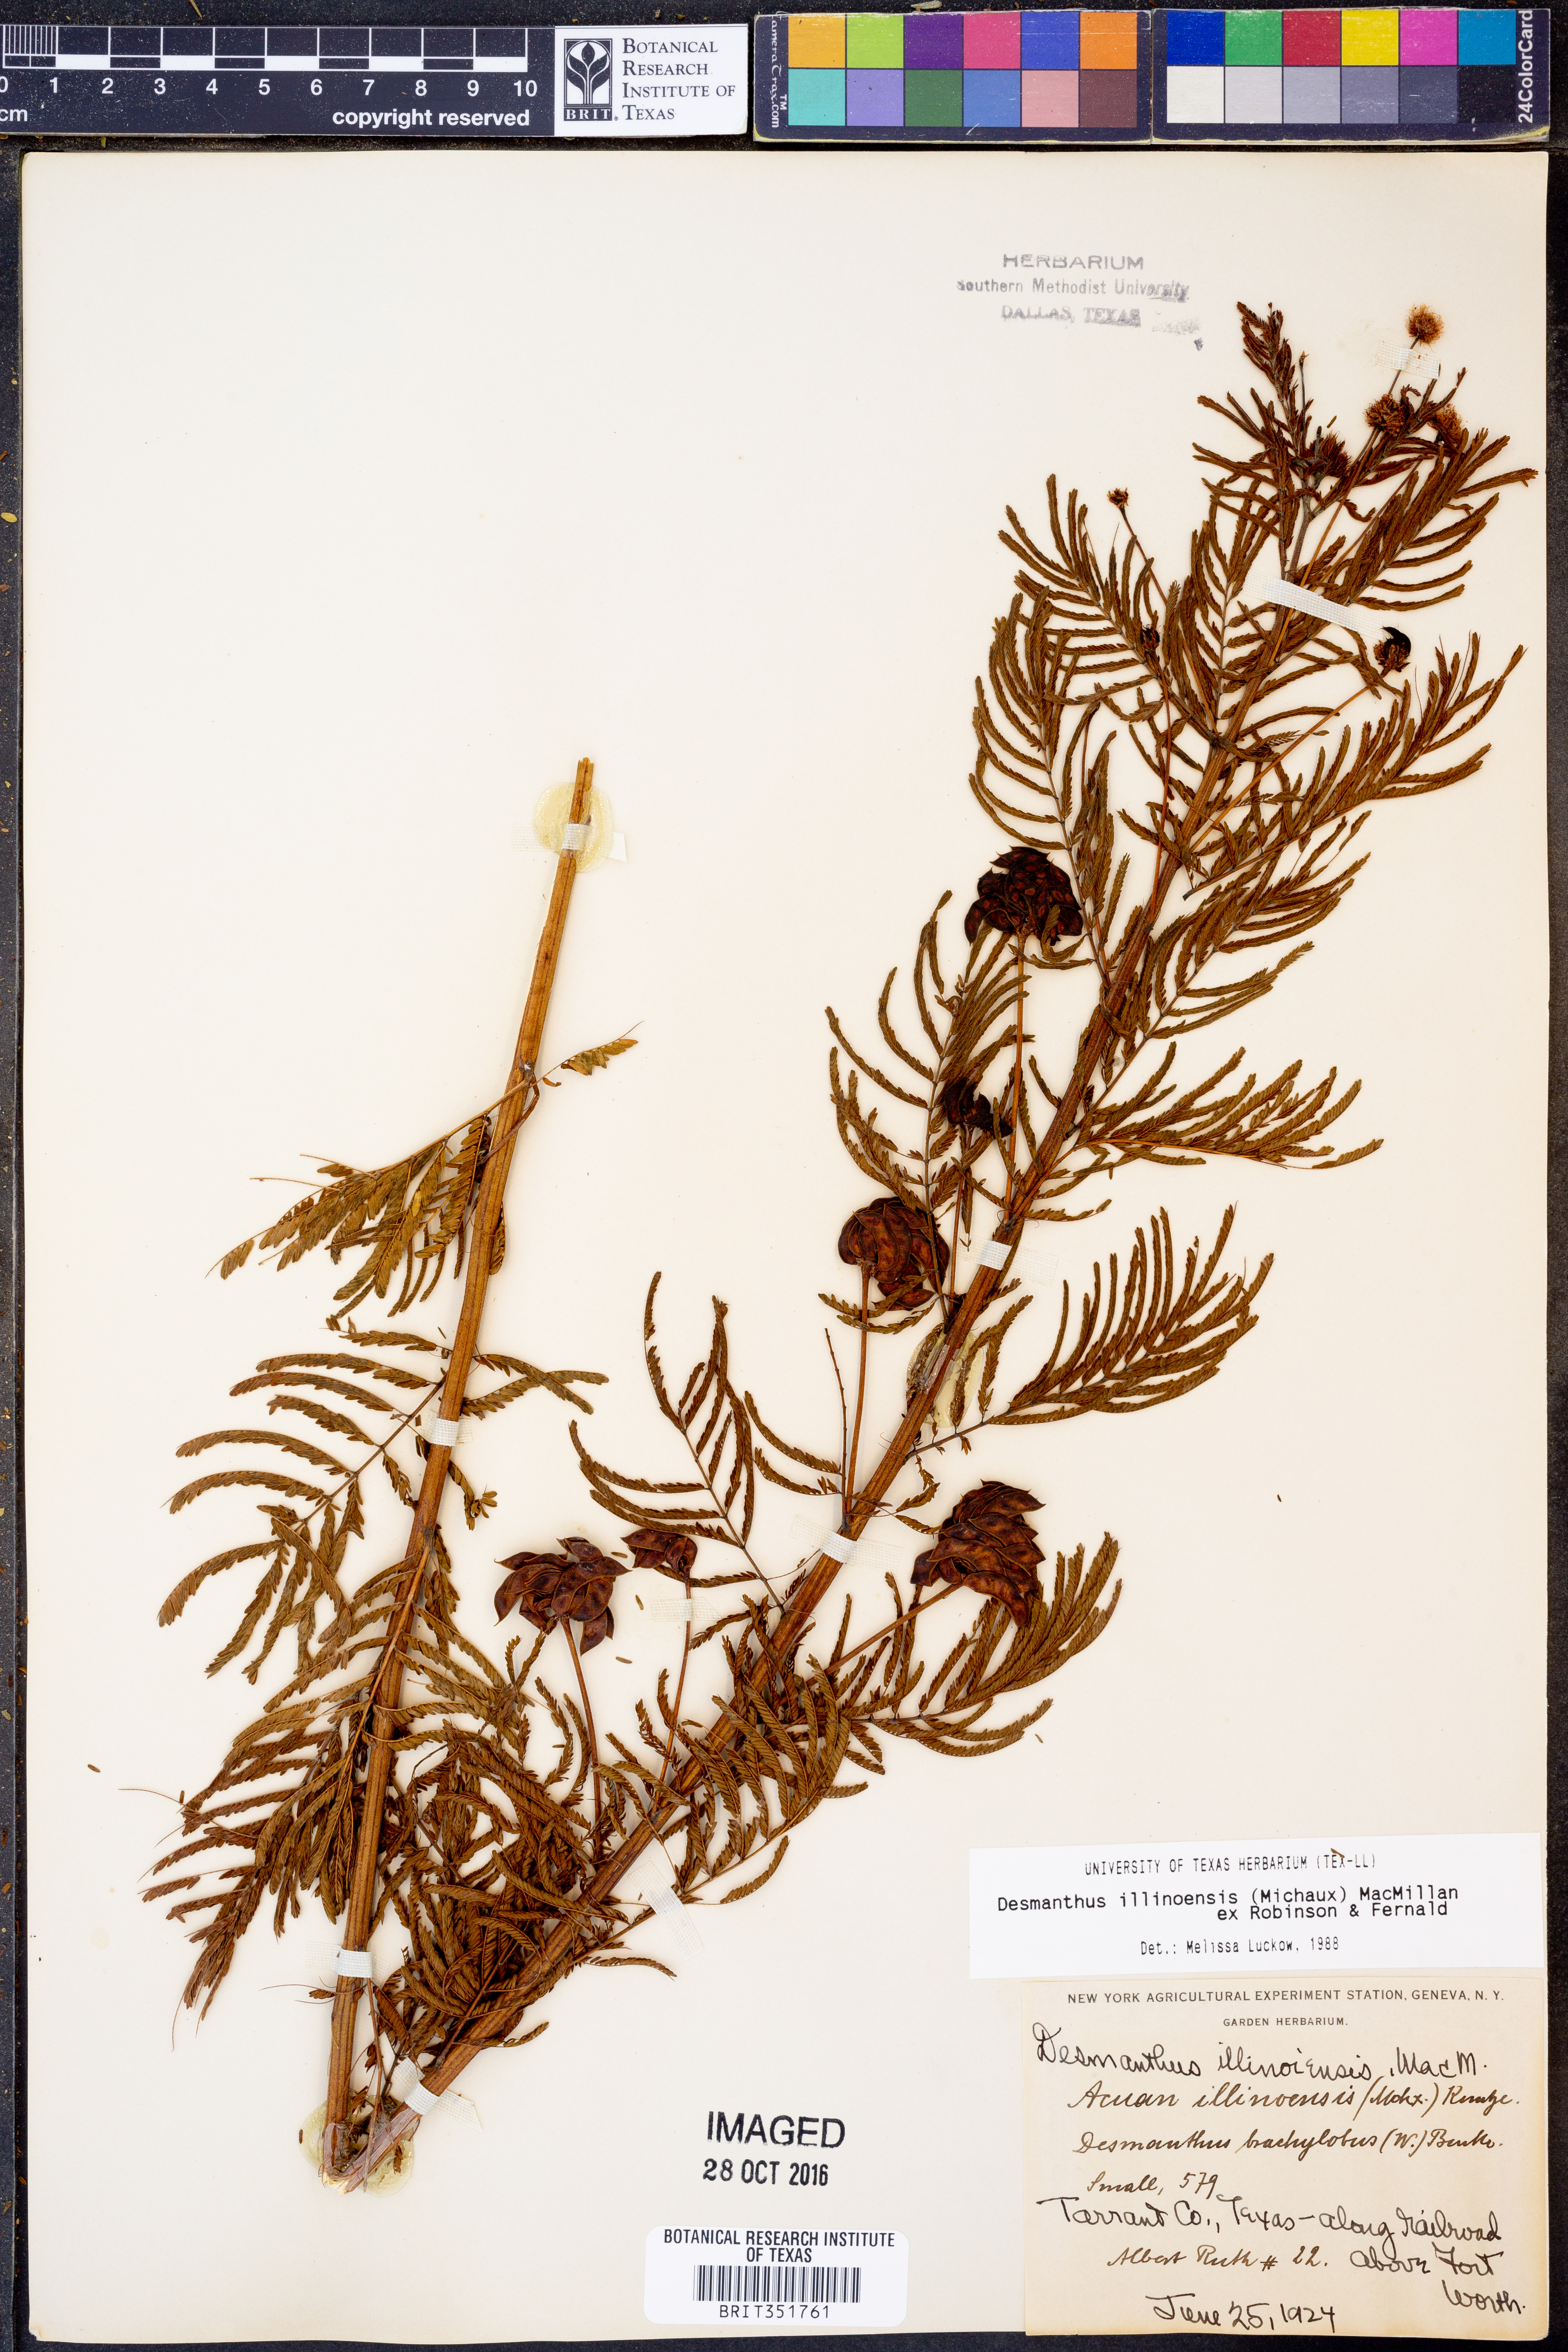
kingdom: Plantae
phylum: Tracheophyta
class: Magnoliopsida
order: Fabales
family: Fabaceae
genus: Desmanthus
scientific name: Desmanthus illinoensis
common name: Illinois bundle-flower
